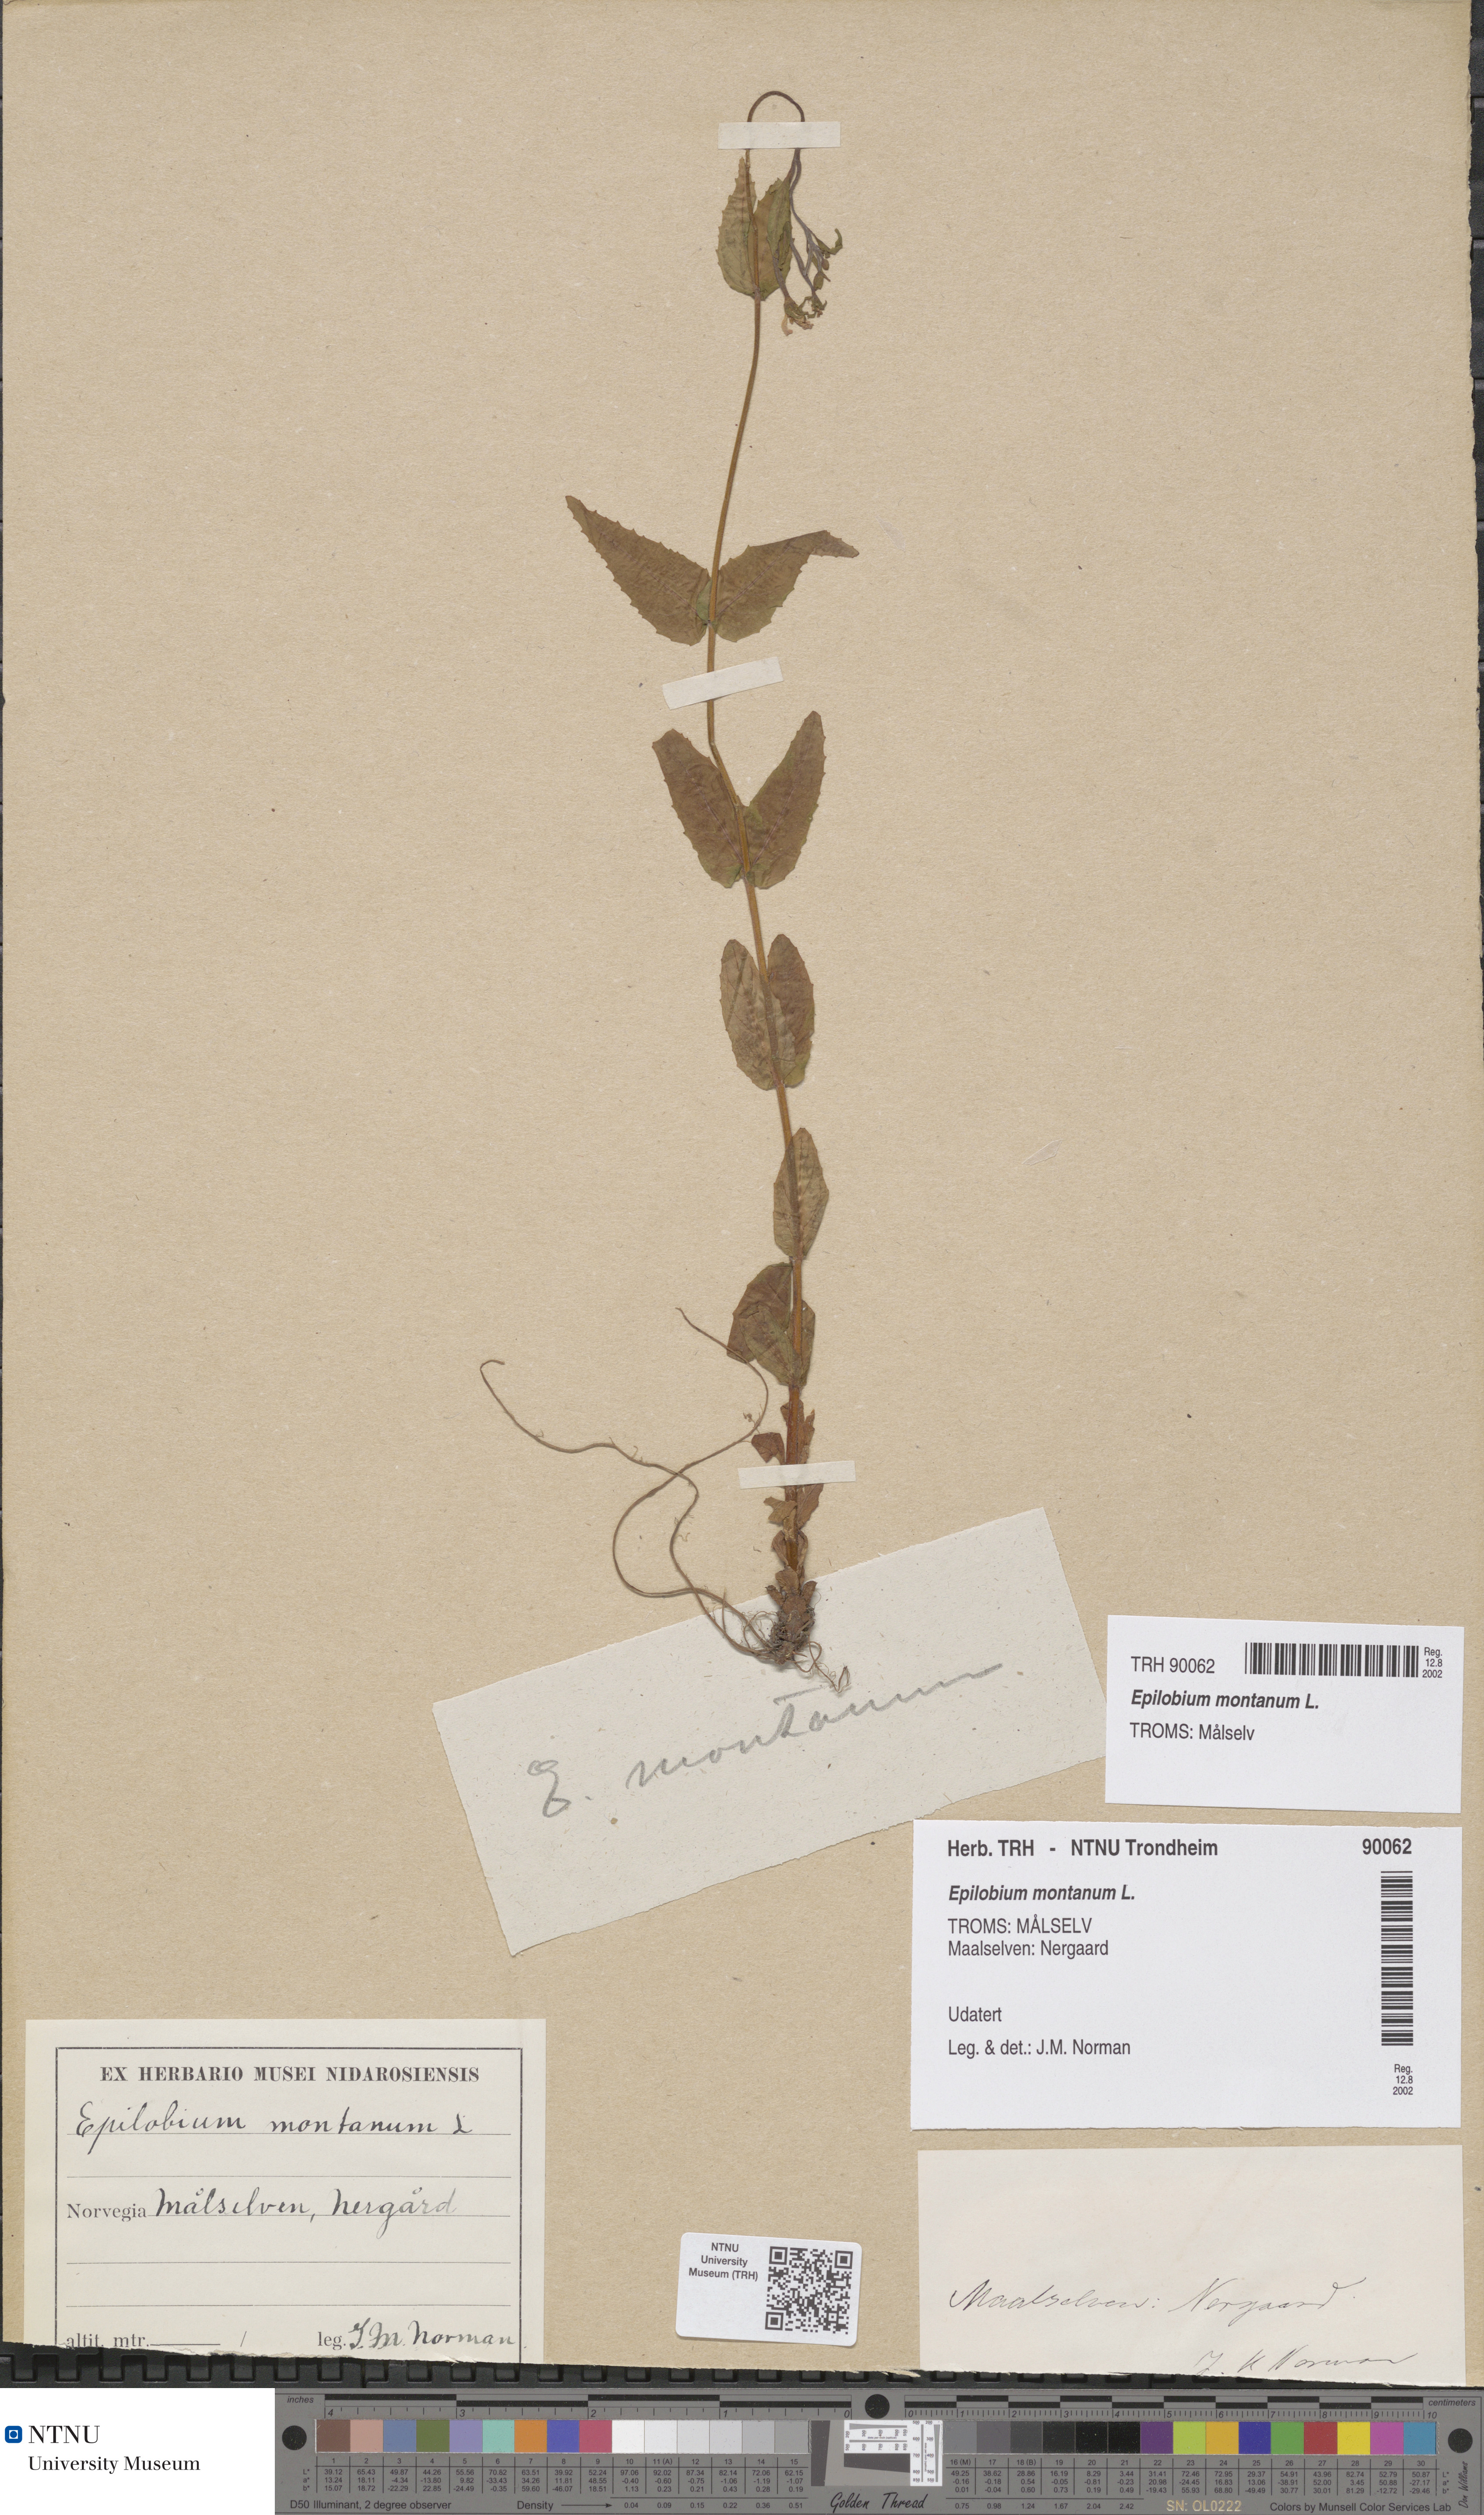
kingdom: Plantae
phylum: Tracheophyta
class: Magnoliopsida
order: Myrtales
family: Onagraceae
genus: Epilobium
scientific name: Epilobium montanum
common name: Broad-leaved willowherb
